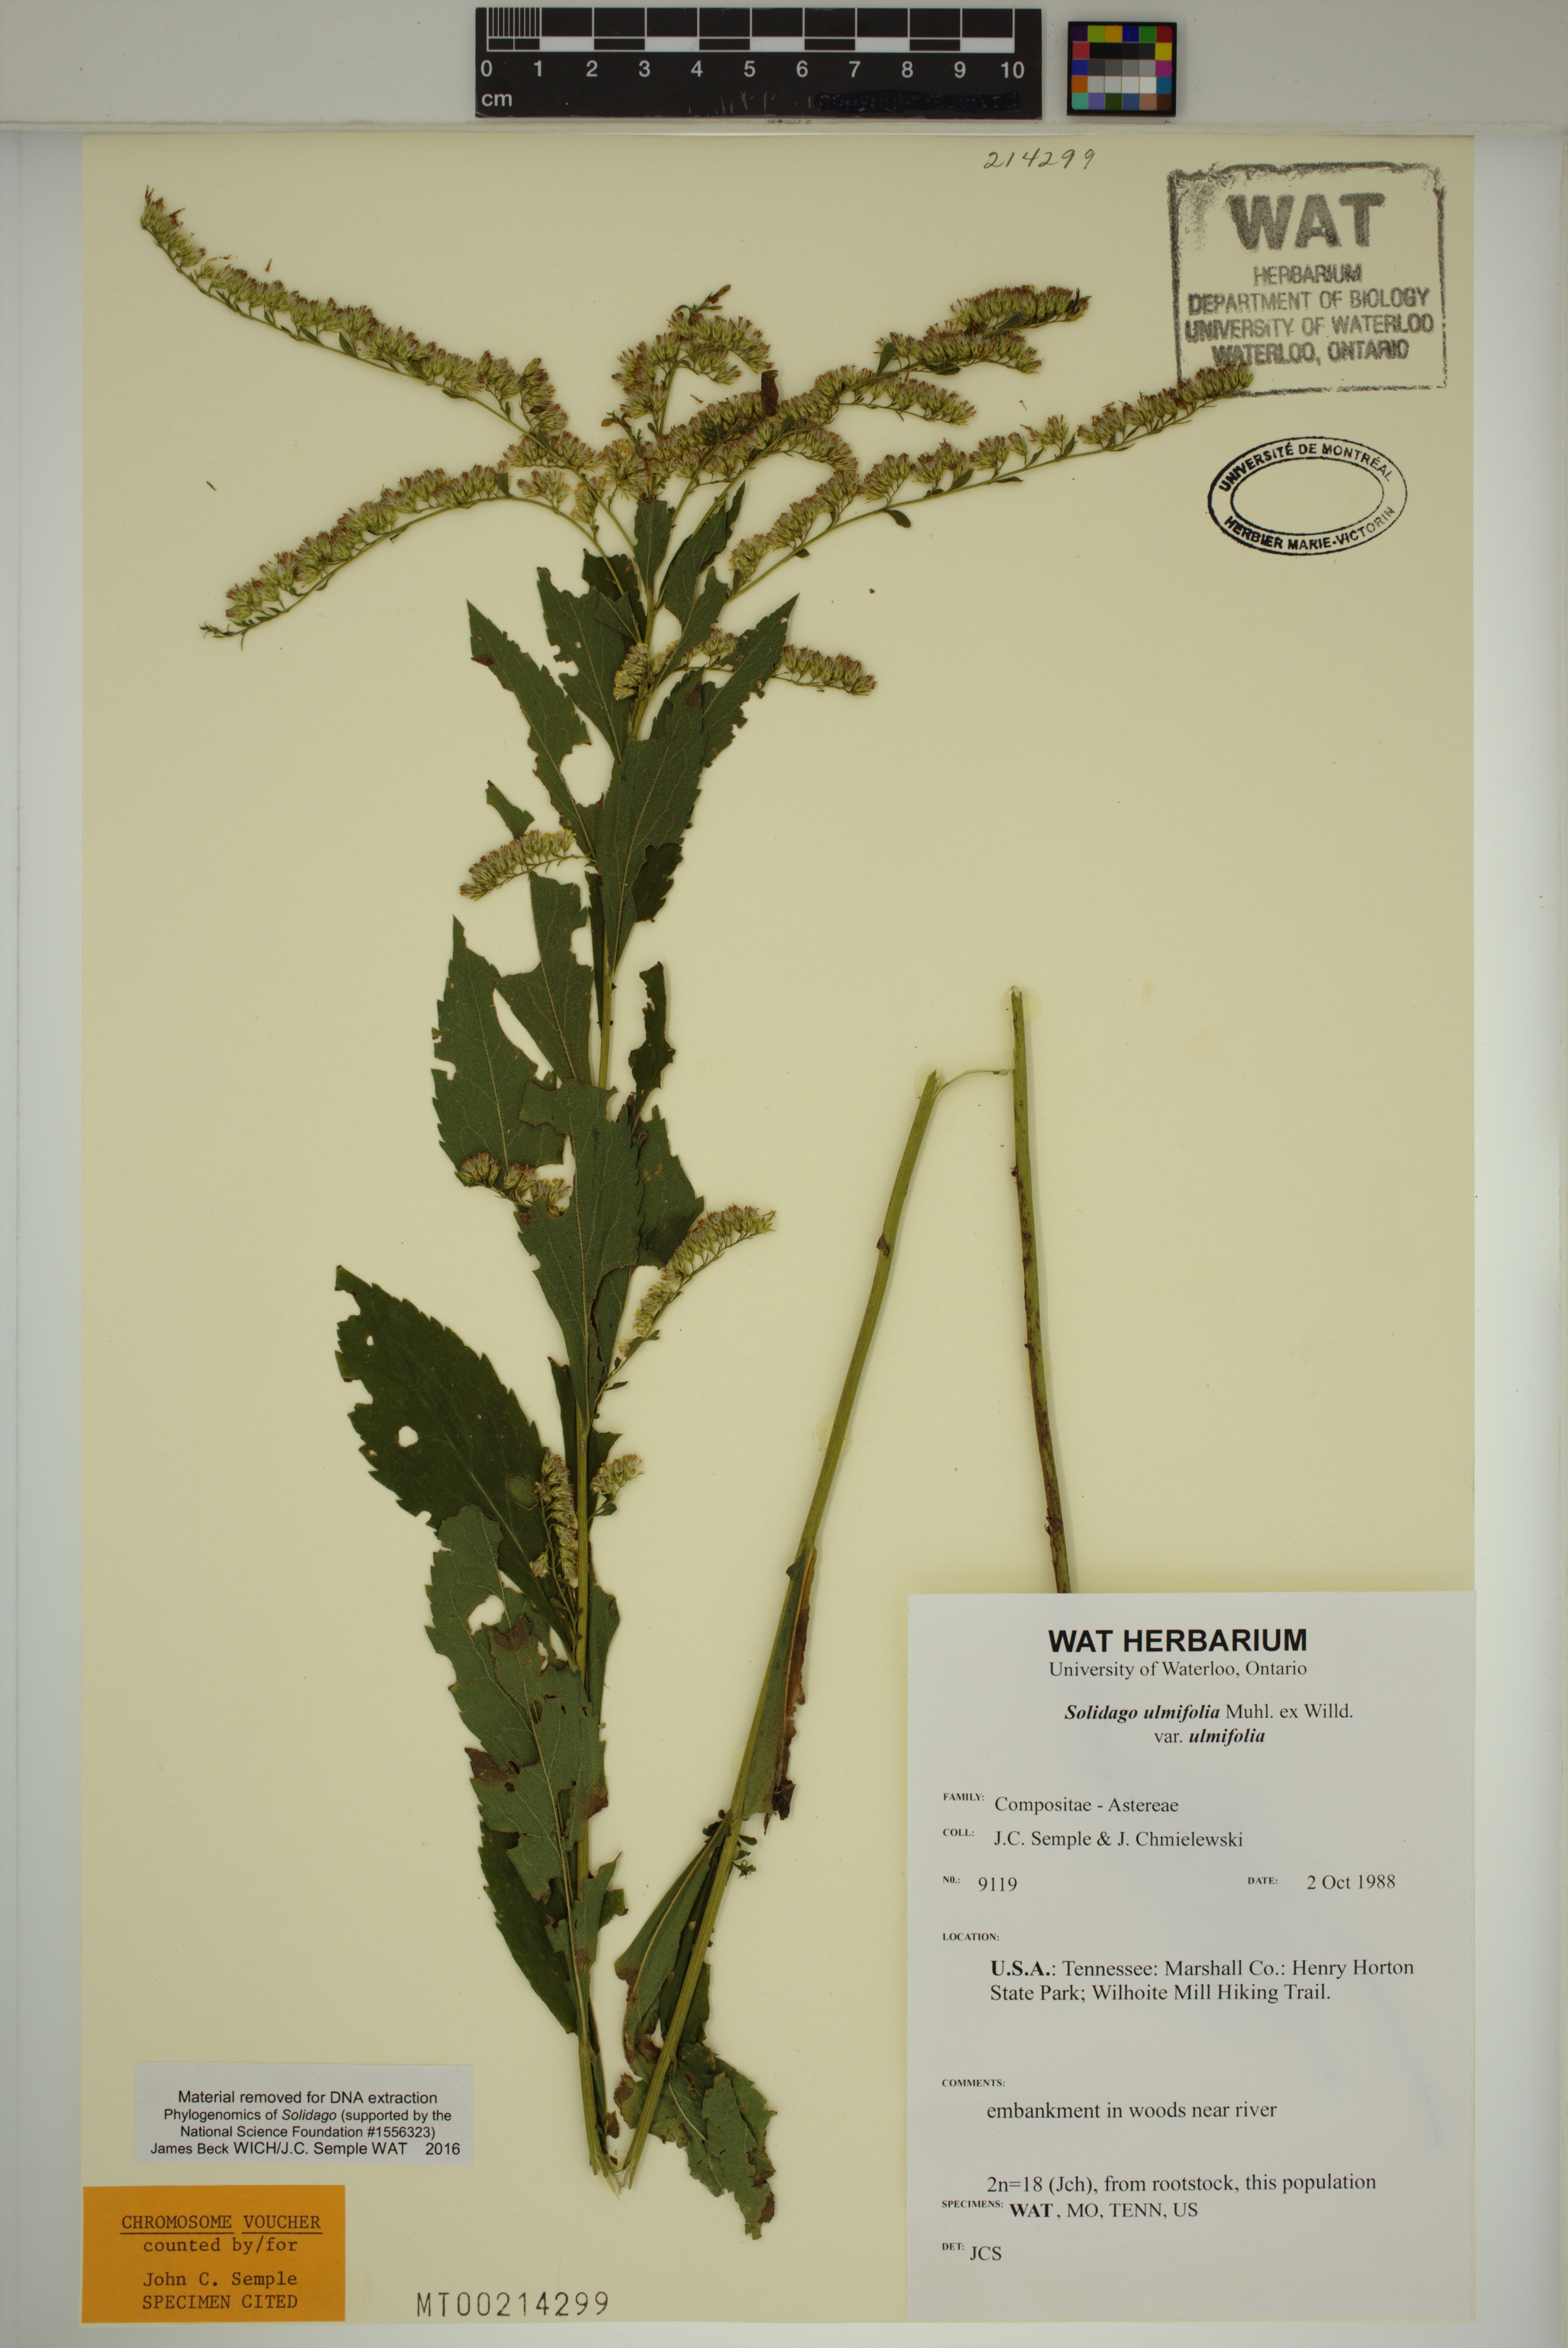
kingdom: Plantae
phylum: Tracheophyta
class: Magnoliopsida
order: Asterales
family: Asteraceae
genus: Solidago
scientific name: Solidago ulmifolia
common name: Elm-leaf goldenrod
